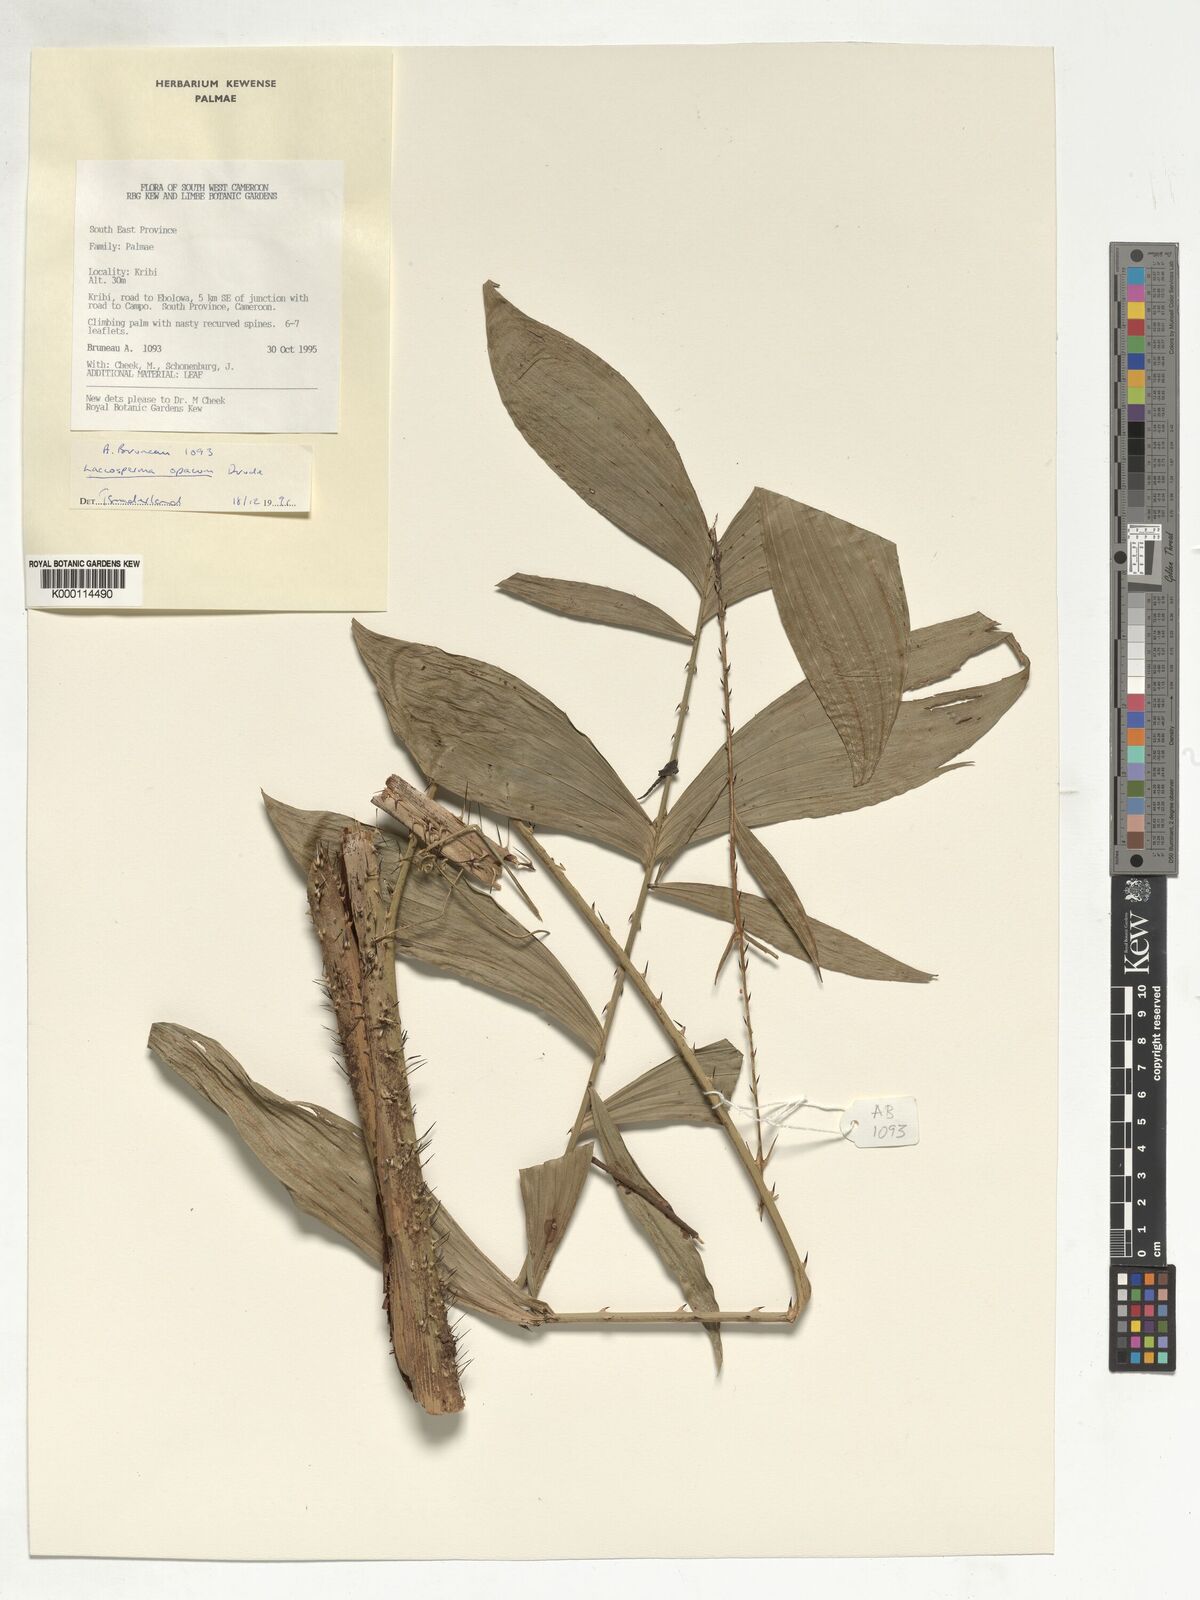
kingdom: Plantae
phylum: Tracheophyta
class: Liliopsida
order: Arecales
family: Arecaceae
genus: Laccosperma
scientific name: Laccosperma opacum
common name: Rattan
